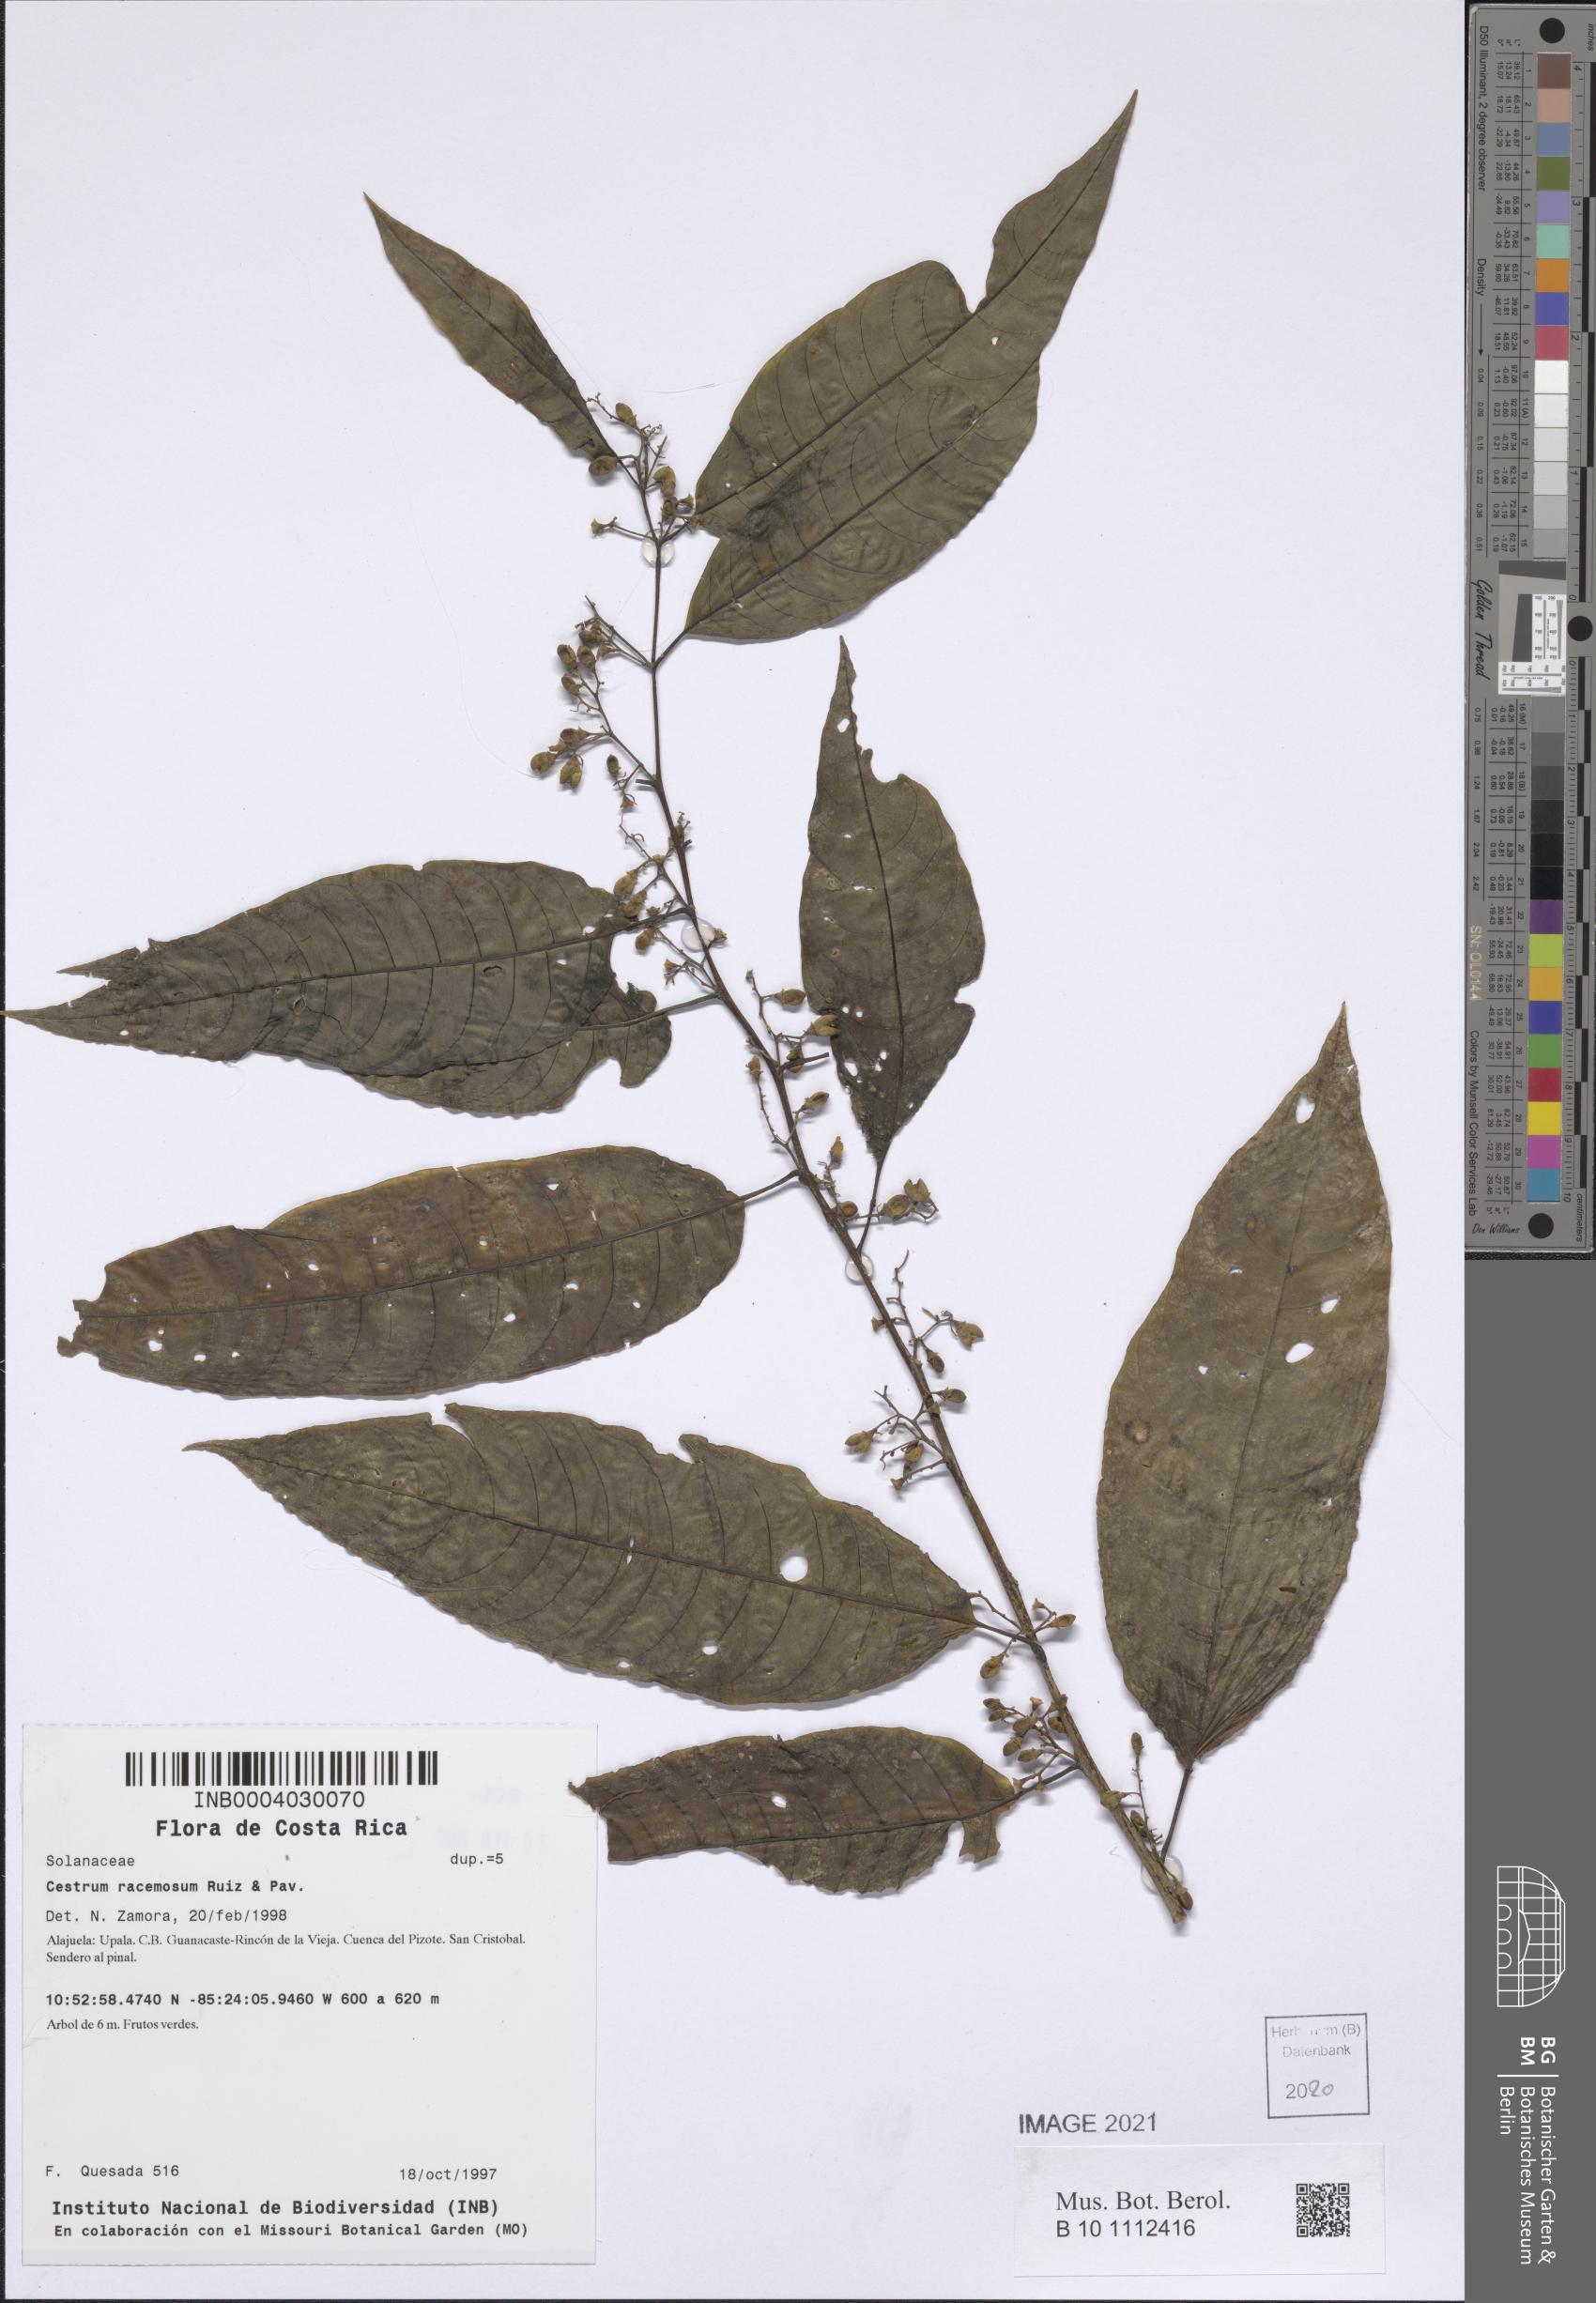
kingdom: Plantae
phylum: Tracheophyta
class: Magnoliopsida
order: Solanales
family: Solanaceae
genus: Cestrum
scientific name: Cestrum racemosum
